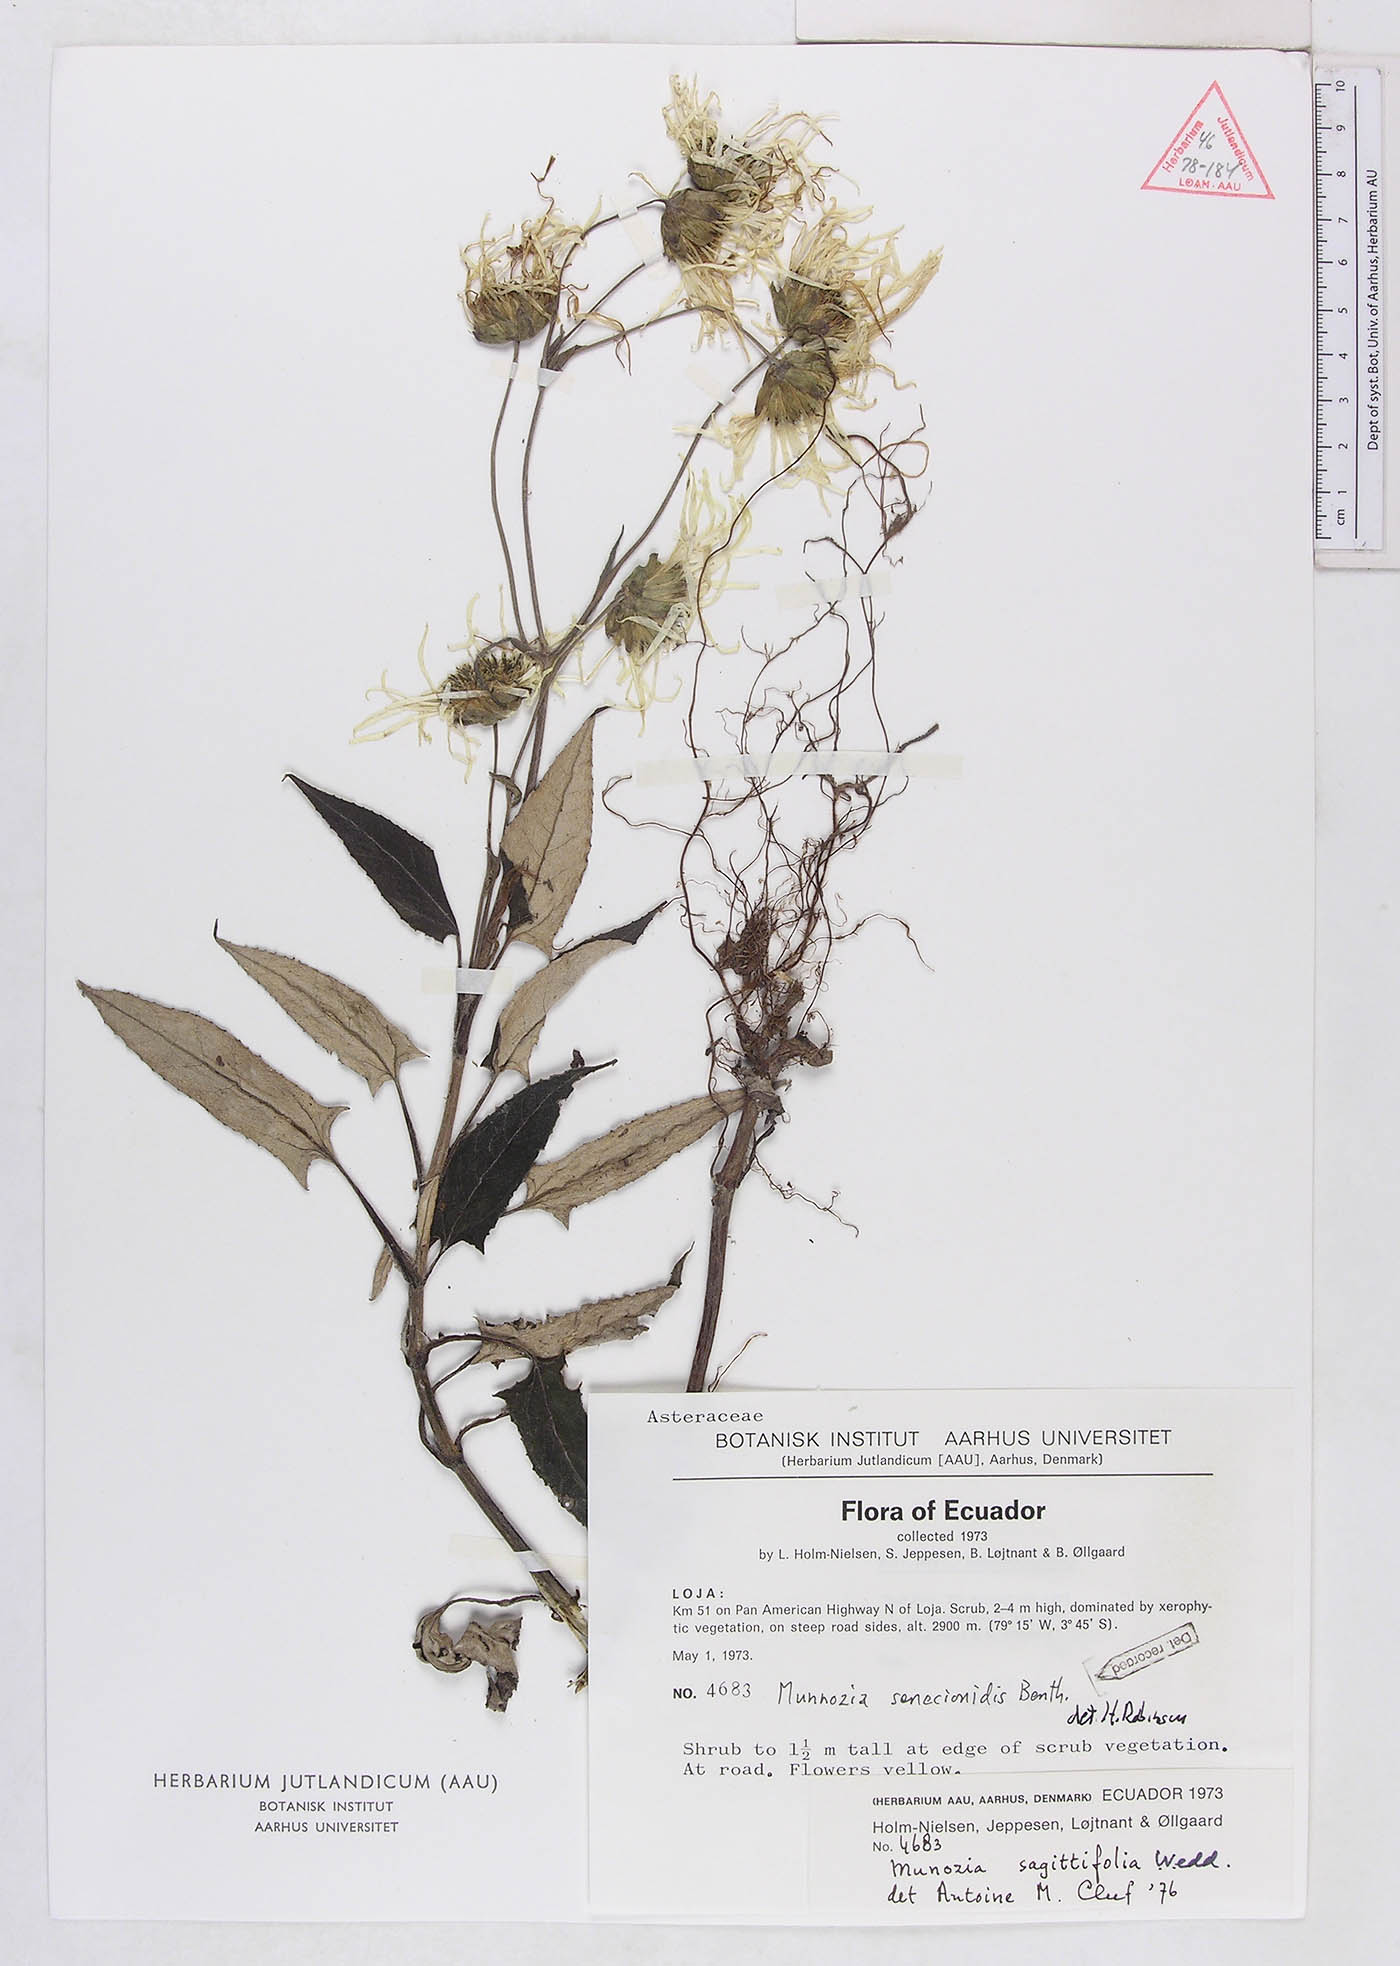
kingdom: Plantae
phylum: Tracheophyta
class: Magnoliopsida
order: Asterales
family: Asteraceae
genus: Munnozia
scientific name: Munnozia senecionidis
